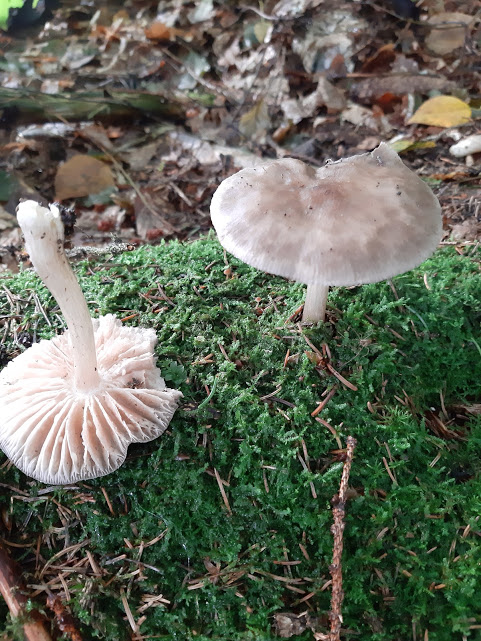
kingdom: Fungi
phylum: Basidiomycota
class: Agaricomycetes
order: Agaricales
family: Tricholomataceae
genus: Megacollybia
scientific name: Megacollybia platyphylla
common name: bredbladet væbnerhat
